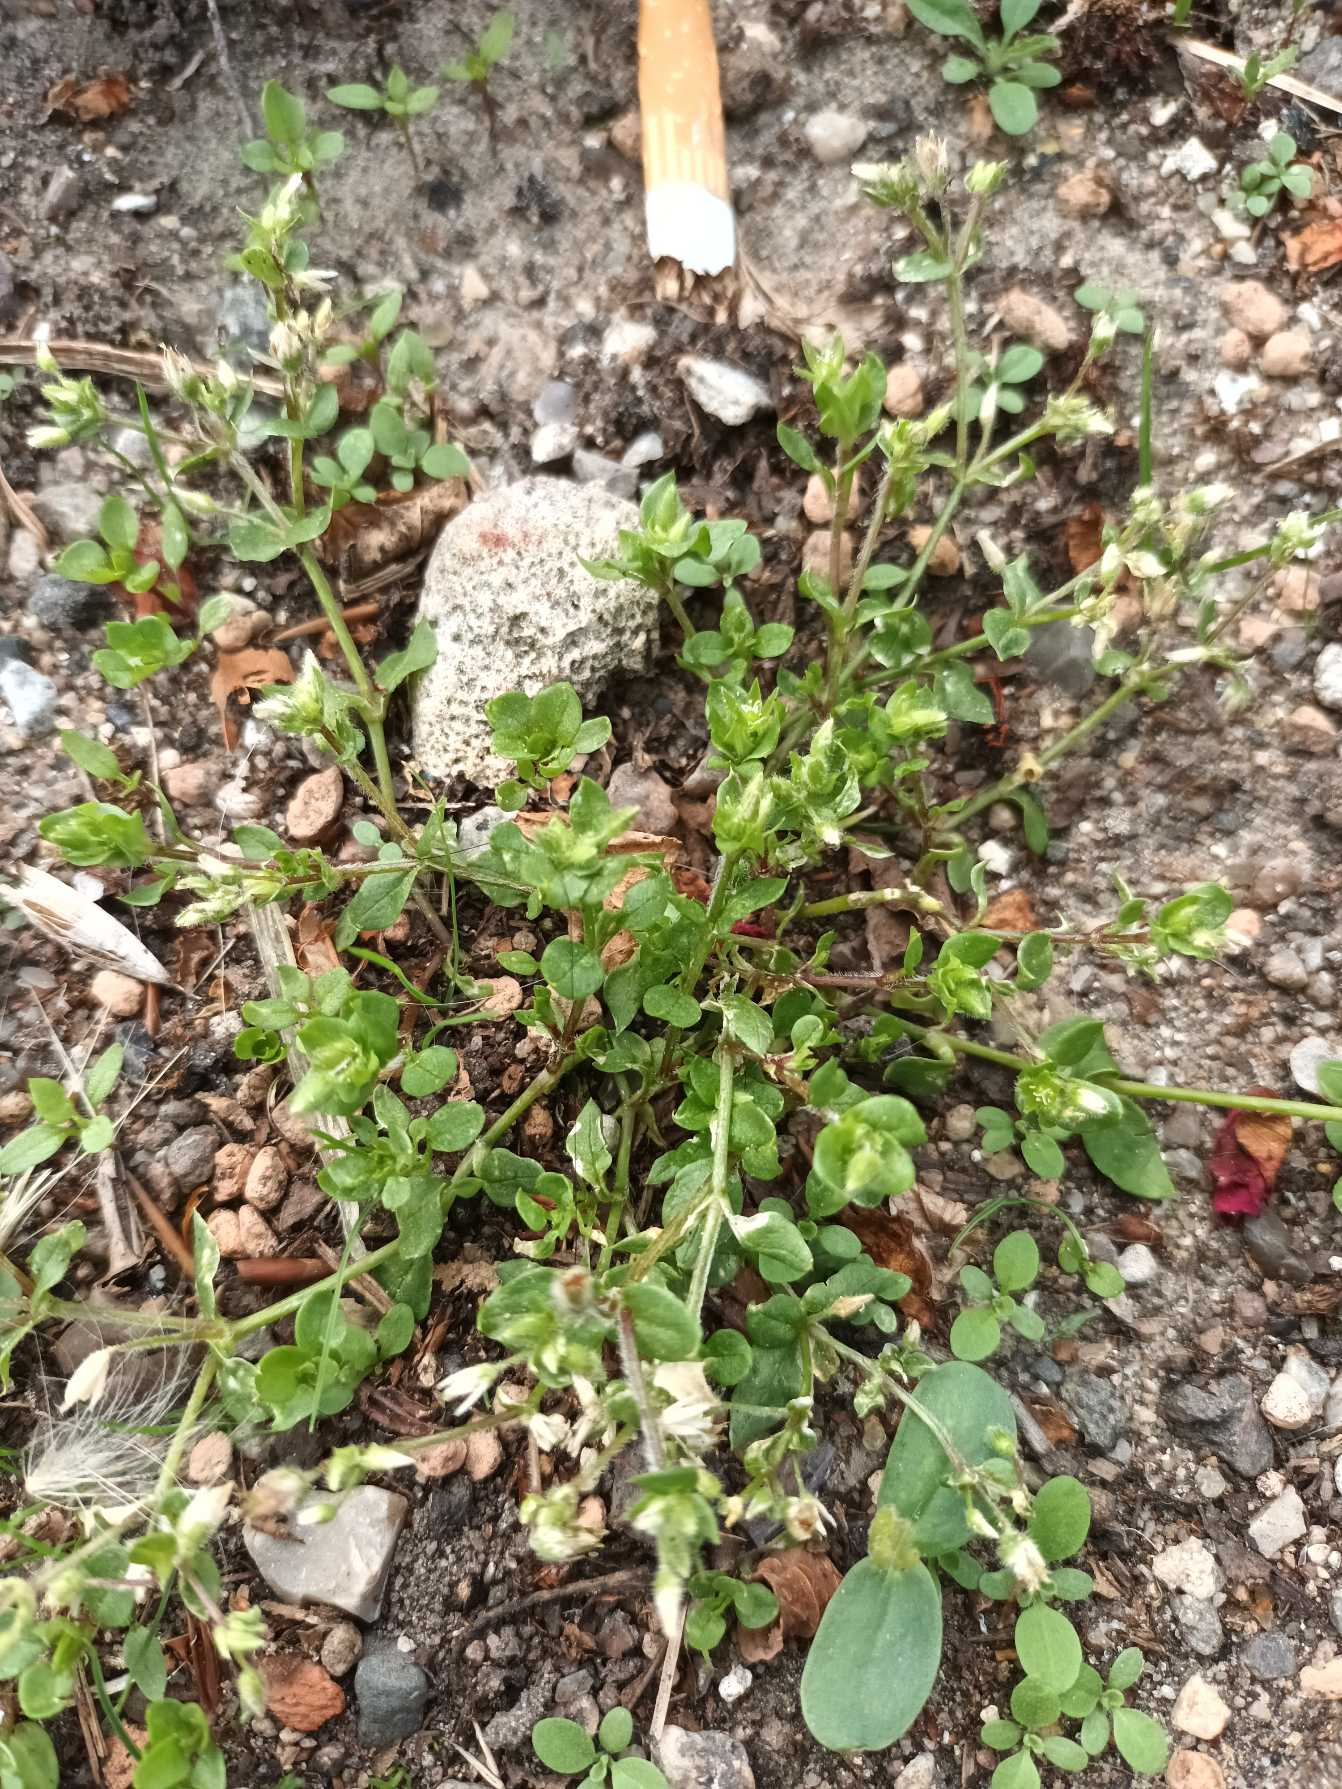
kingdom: Plantae
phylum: Tracheophyta
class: Magnoliopsida
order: Caryophyllales
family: Caryophyllaceae
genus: Stellaria
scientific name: Stellaria media
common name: Almindelig fuglegræs
